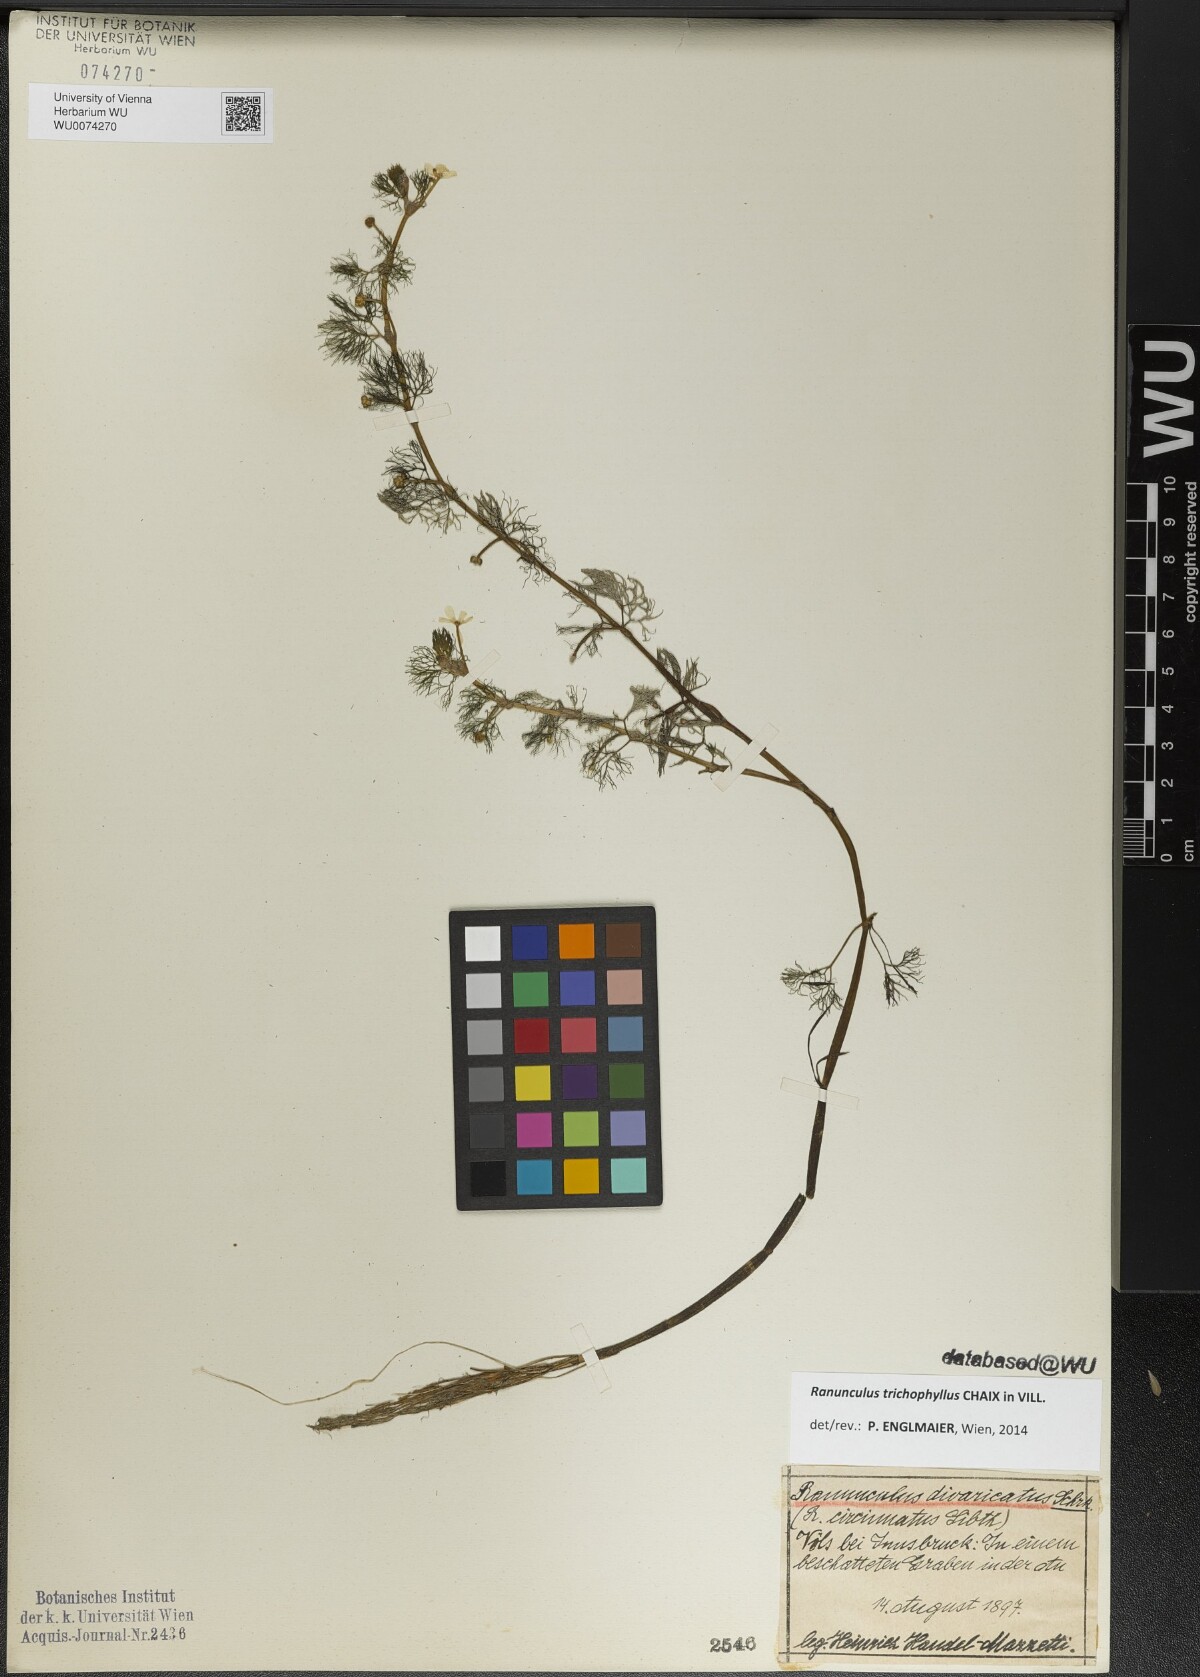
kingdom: Plantae
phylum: Tracheophyta
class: Magnoliopsida
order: Ranunculales
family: Ranunculaceae
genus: Ranunculus
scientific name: Ranunculus trichophyllus
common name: Thread-leaved water-crowfoot
